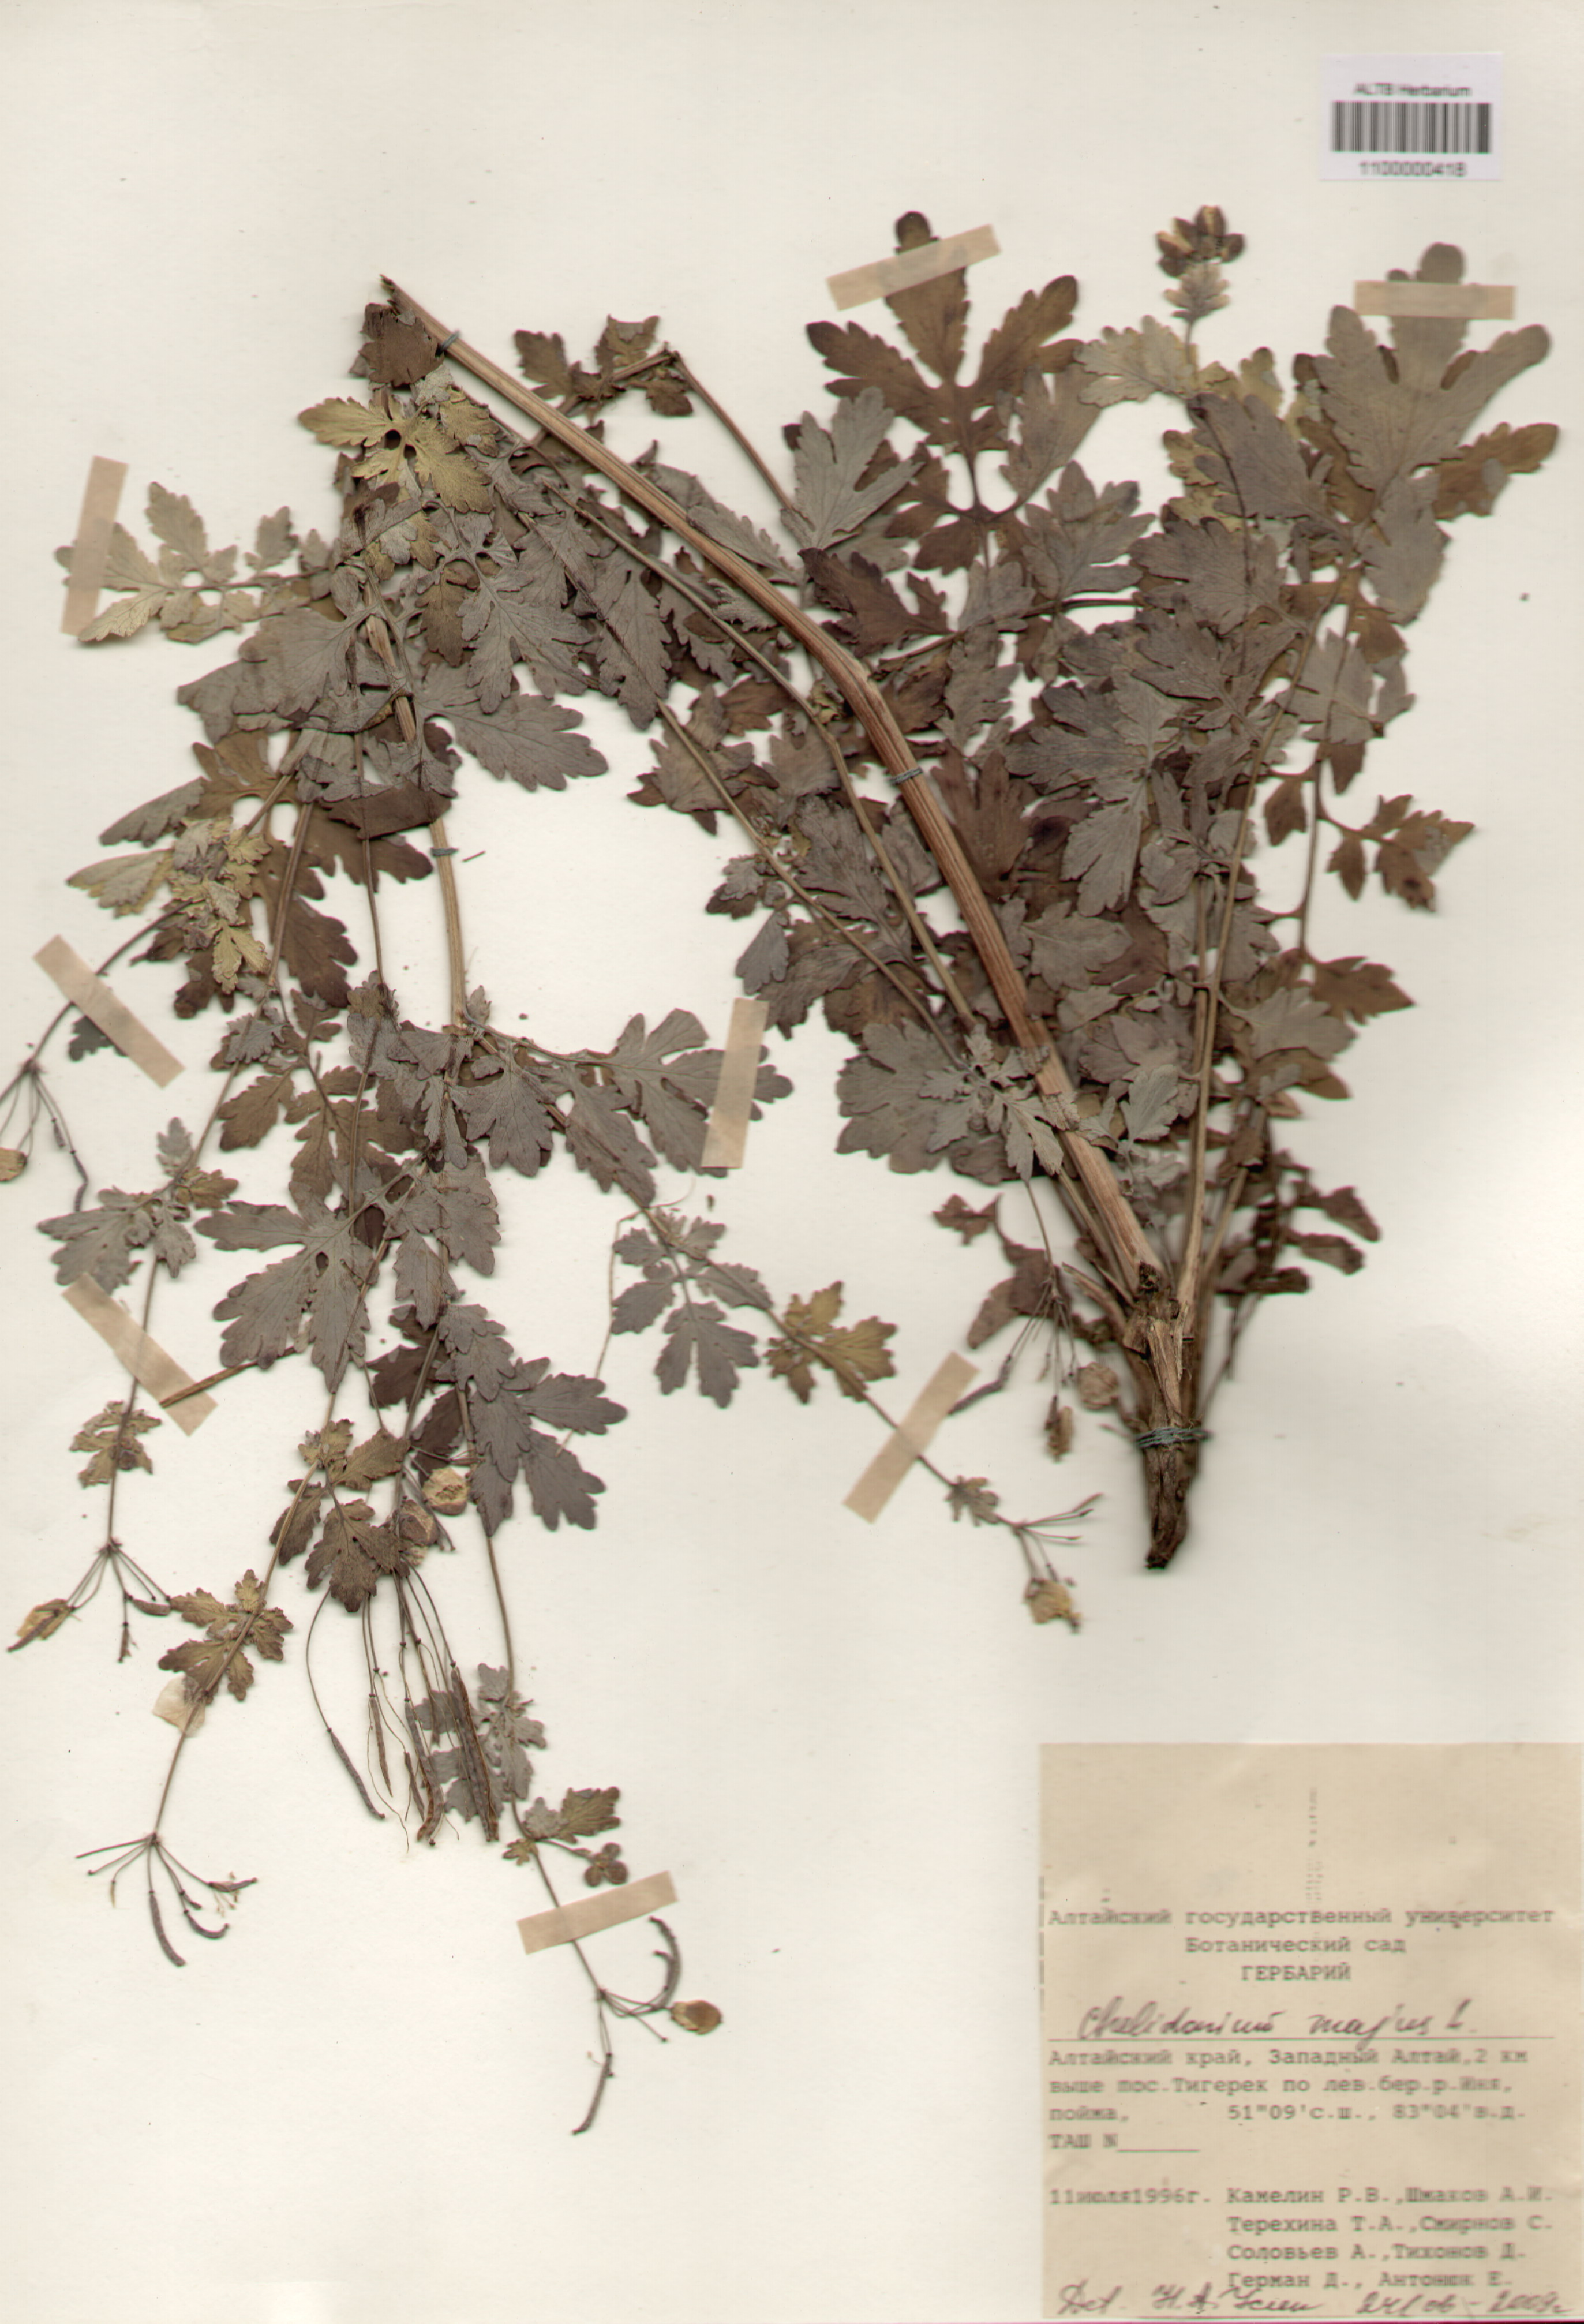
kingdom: Plantae
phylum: Tracheophyta
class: Magnoliopsida
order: Ranunculales
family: Papaveraceae
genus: Chelidonium
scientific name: Chelidonium majus
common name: Greater celandine
